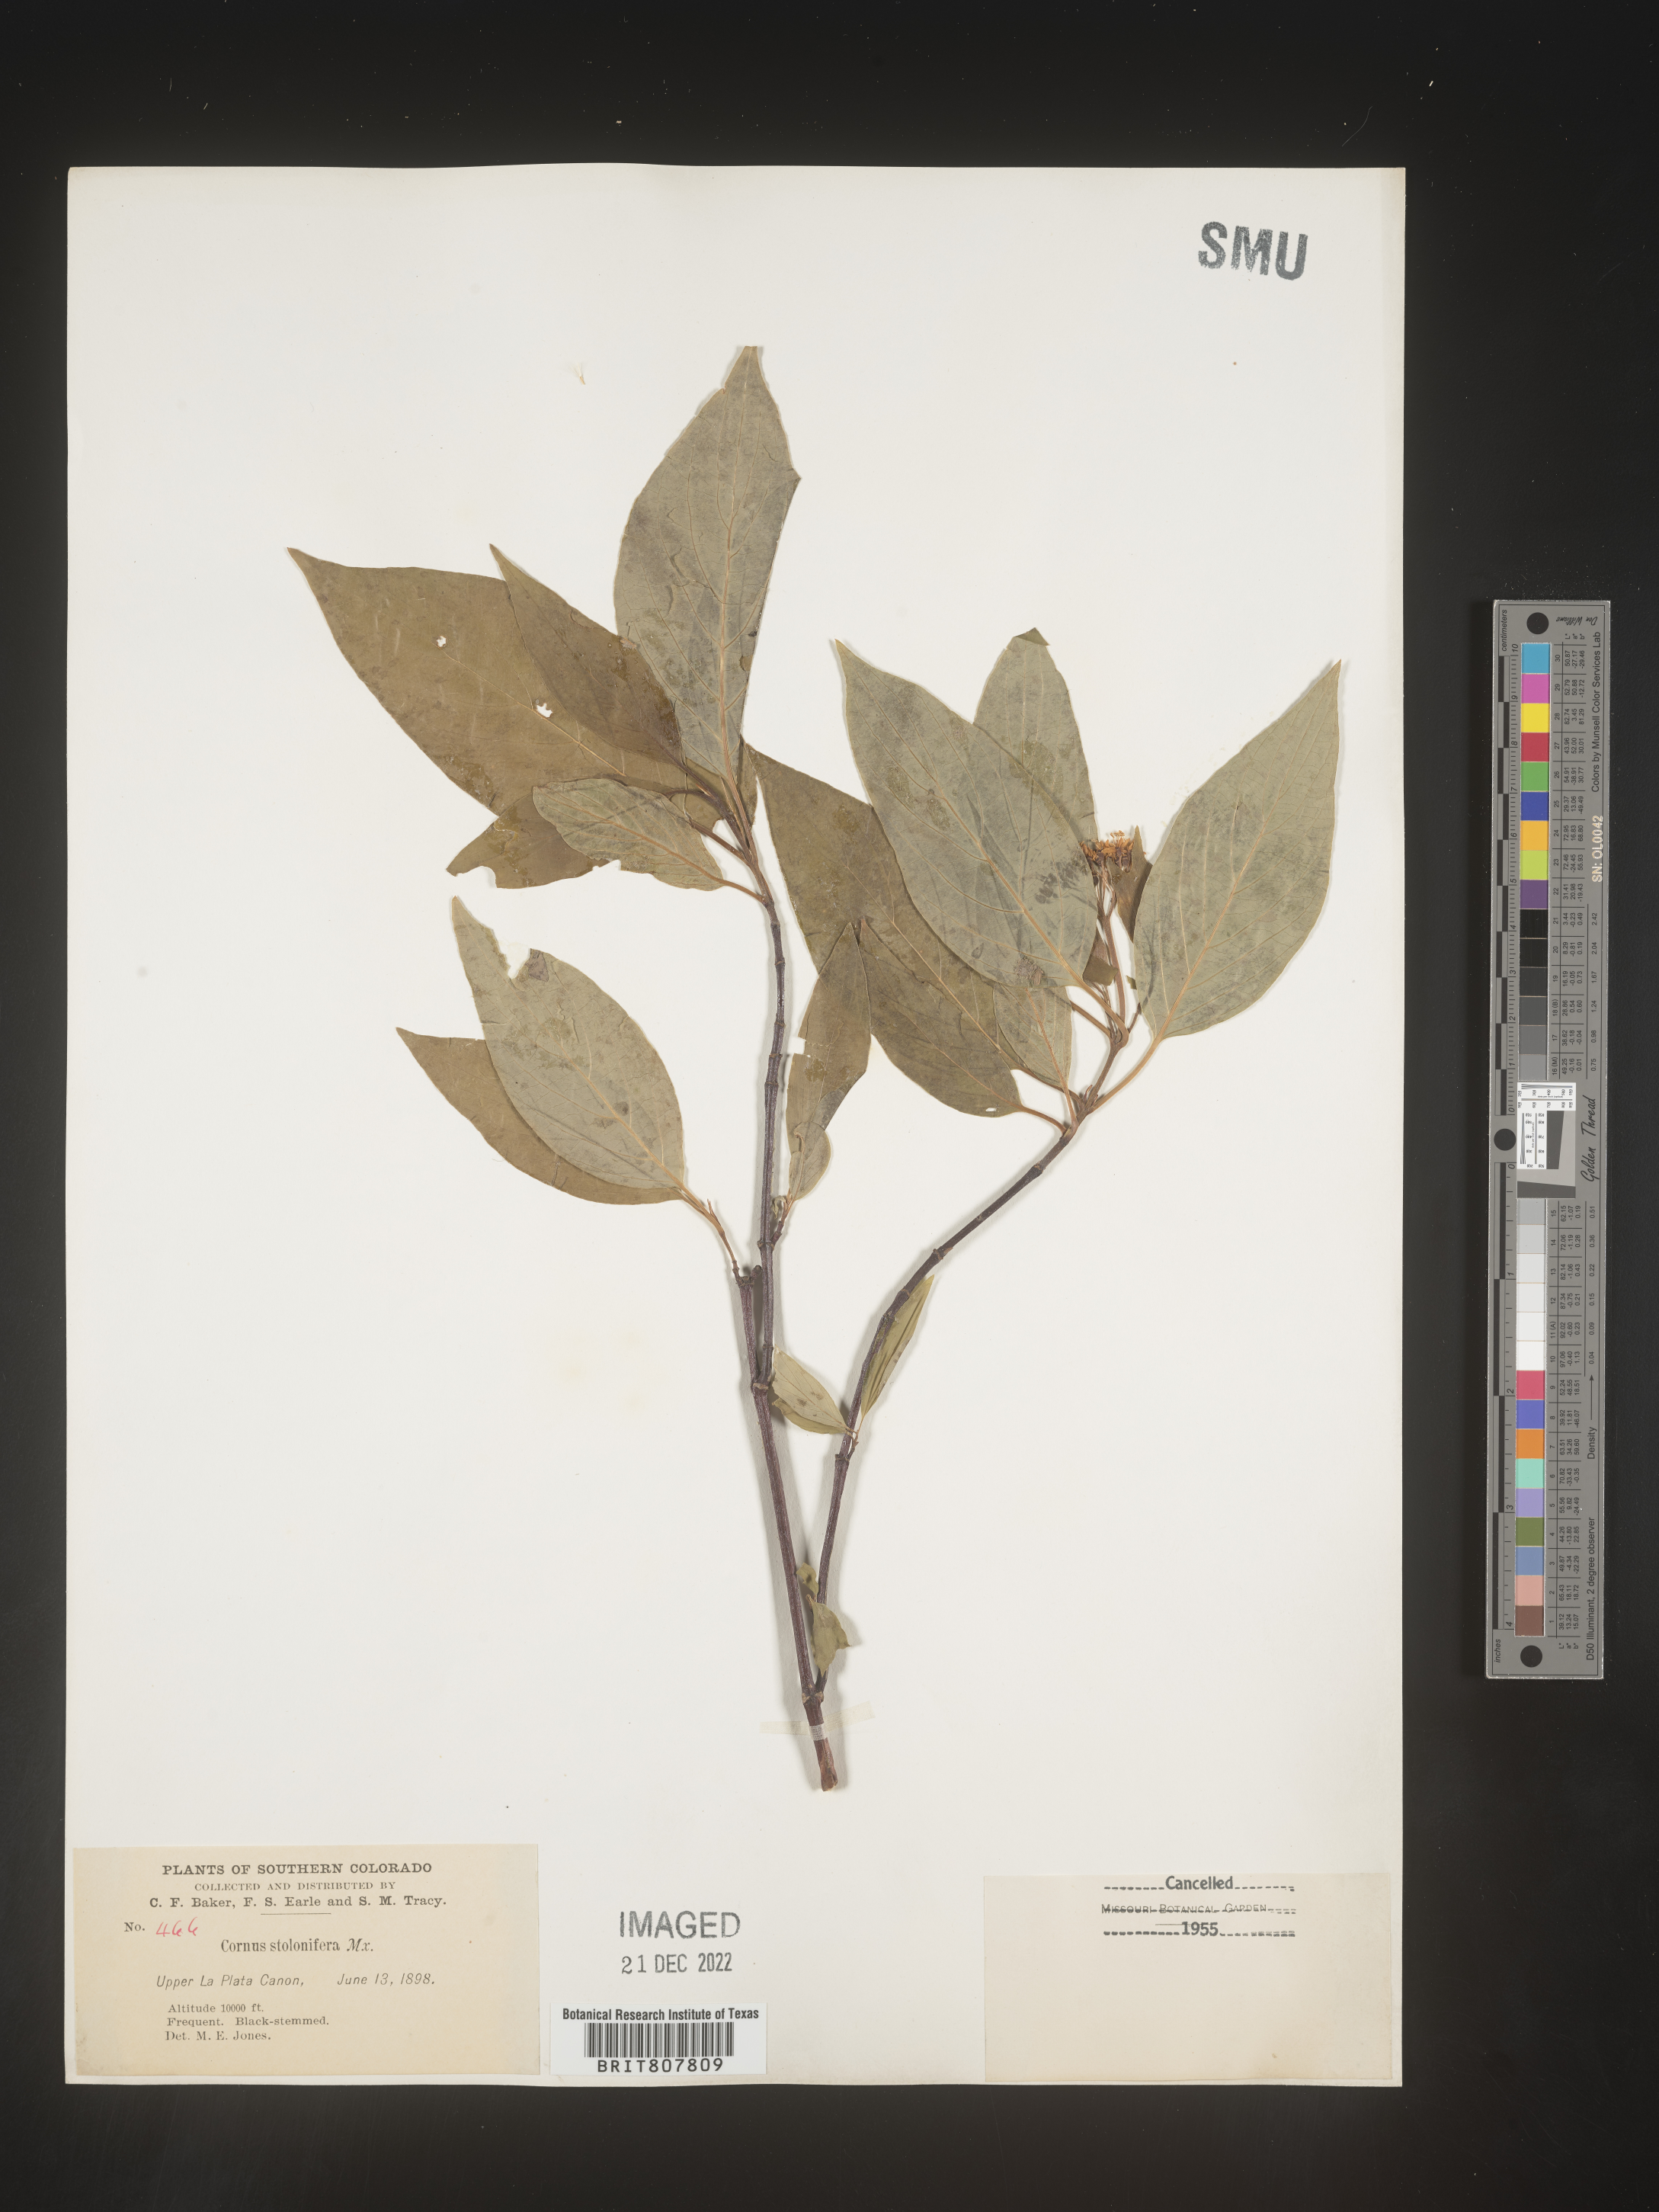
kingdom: Plantae
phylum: Tracheophyta
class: Magnoliopsida
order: Cornales
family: Cornaceae
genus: Cornus
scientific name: Cornus sericea
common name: Red-osier dogwood
